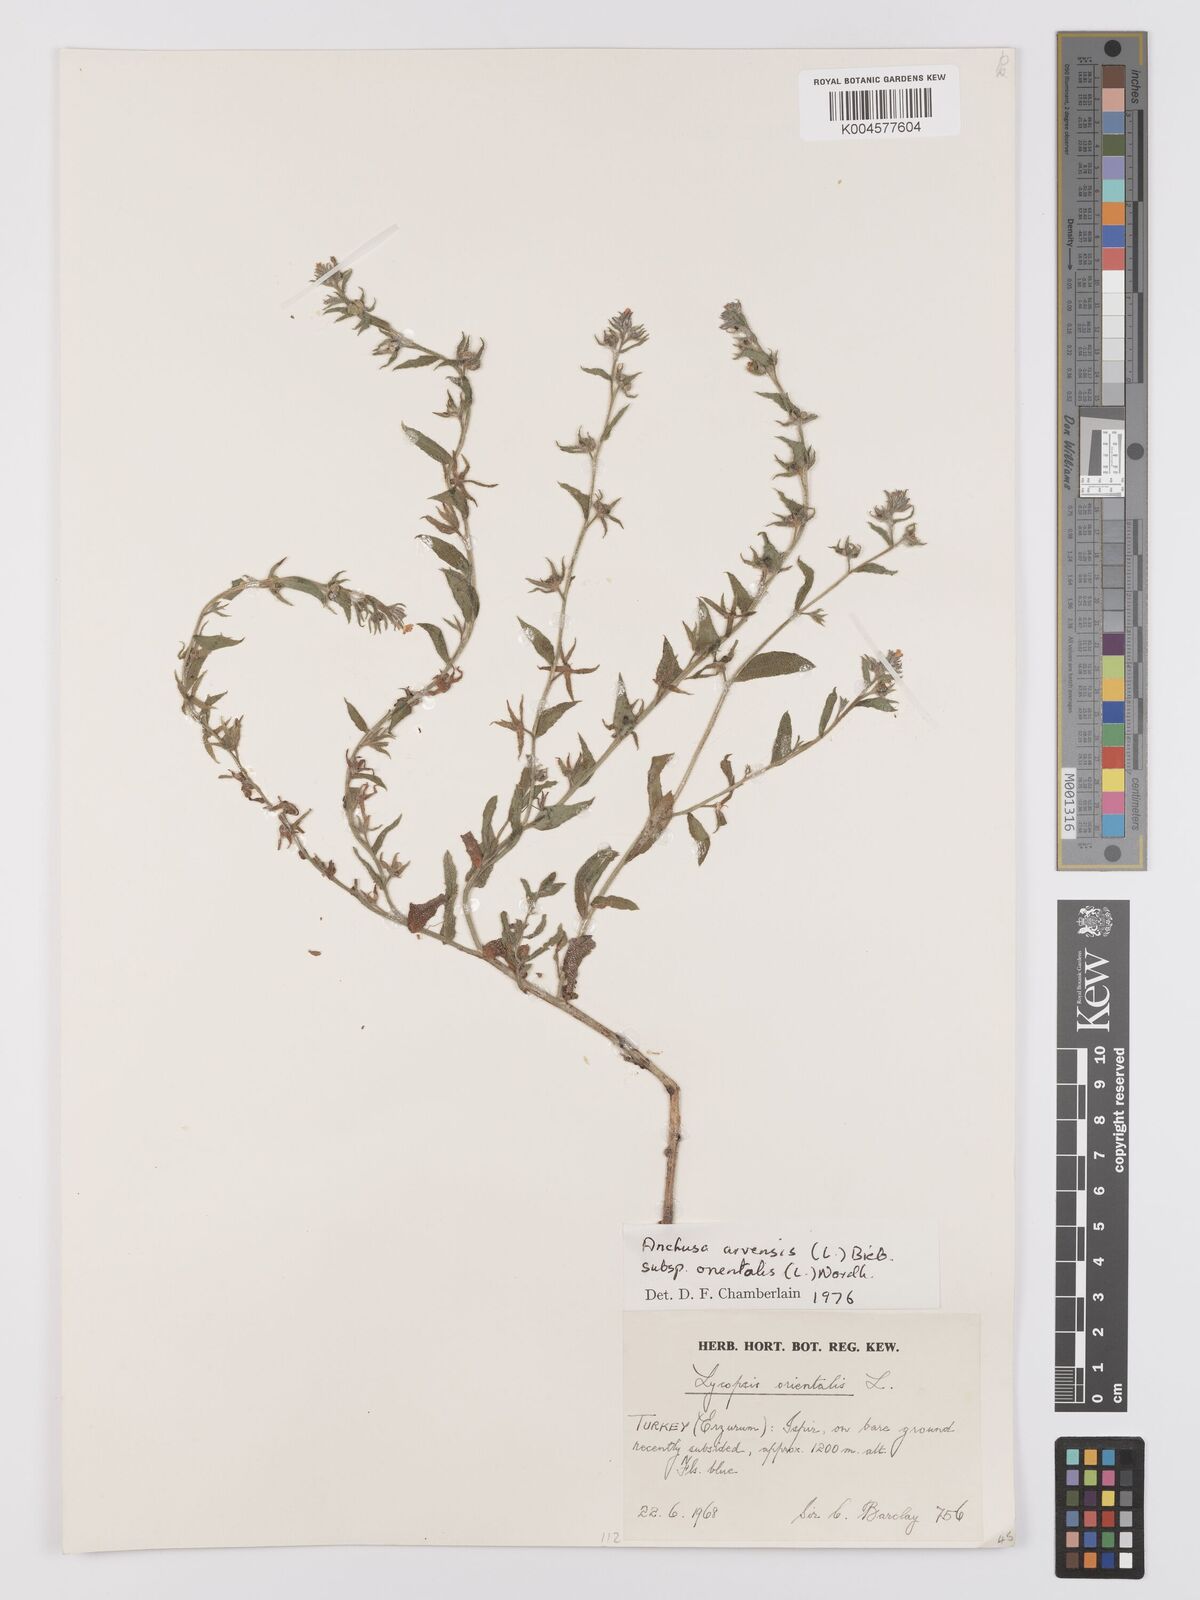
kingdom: Plantae
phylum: Tracheophyta
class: Magnoliopsida
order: Boraginales
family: Boraginaceae
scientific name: Boraginaceae
